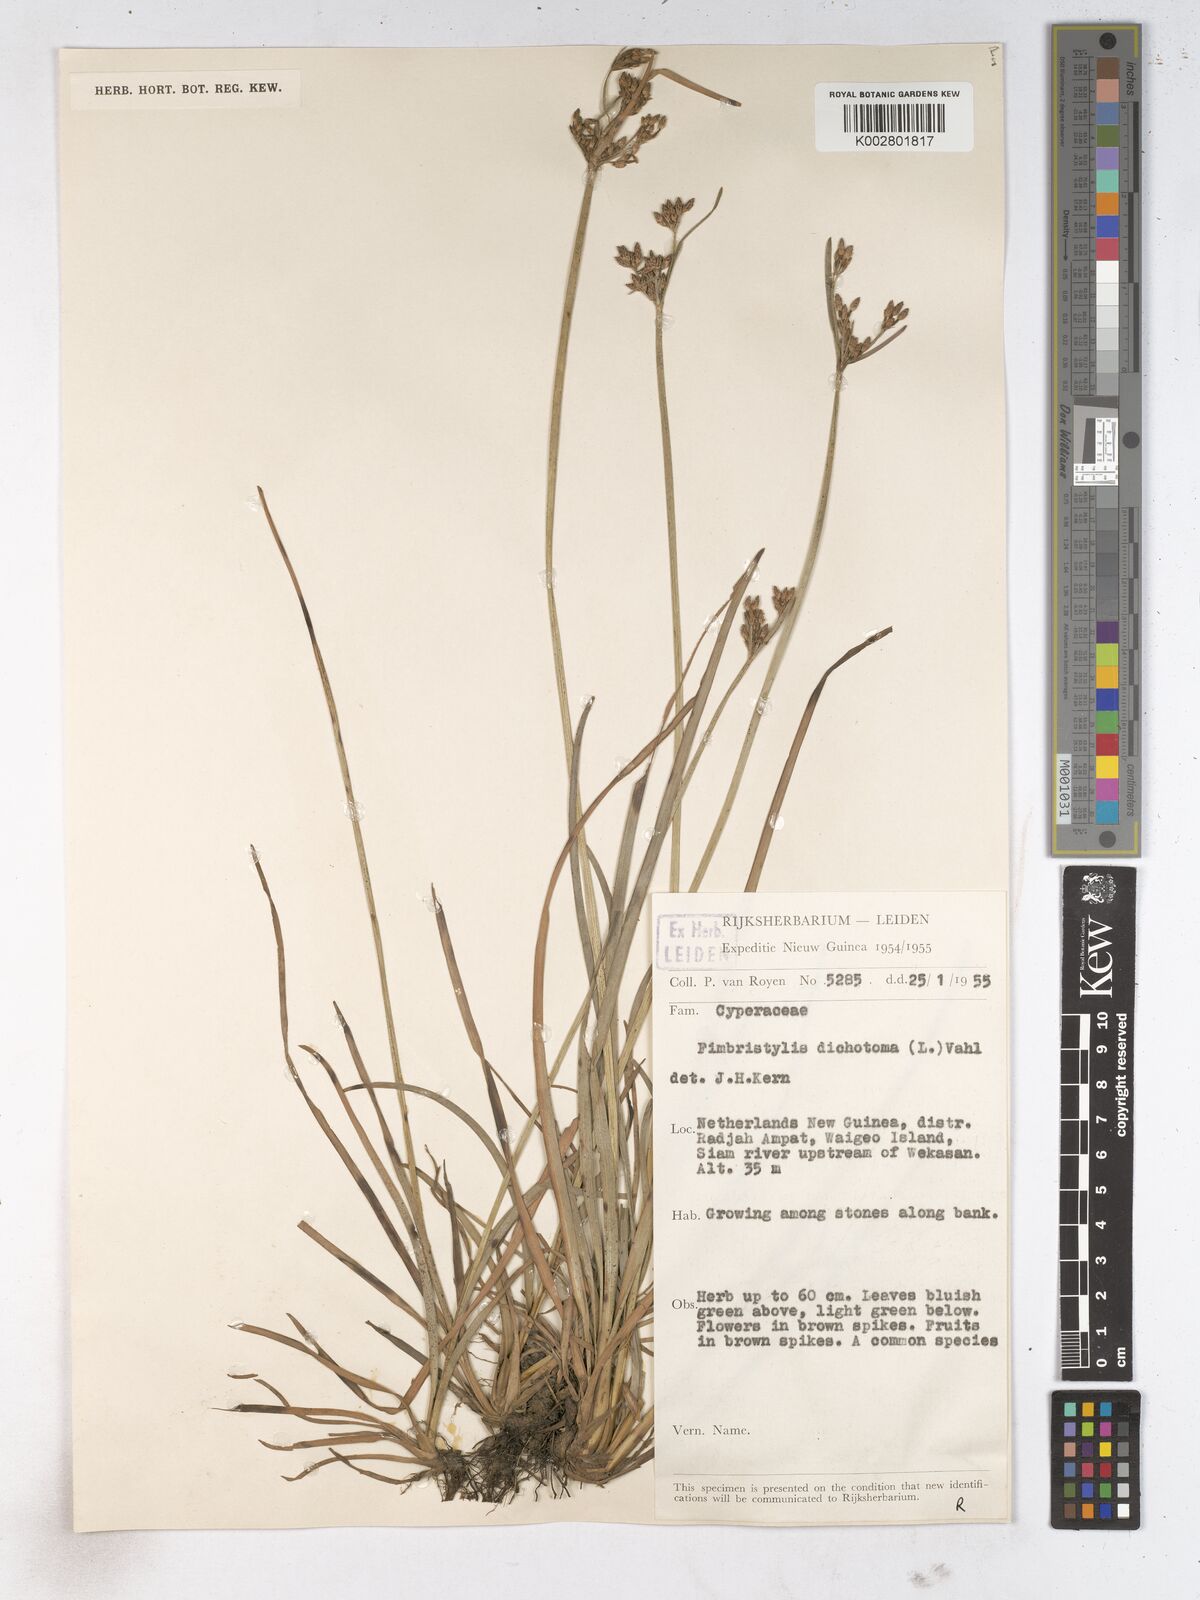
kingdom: Plantae
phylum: Tracheophyta
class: Liliopsida
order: Poales
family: Cyperaceae
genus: Fimbristylis
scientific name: Fimbristylis dichotoma
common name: Forked fimbry
